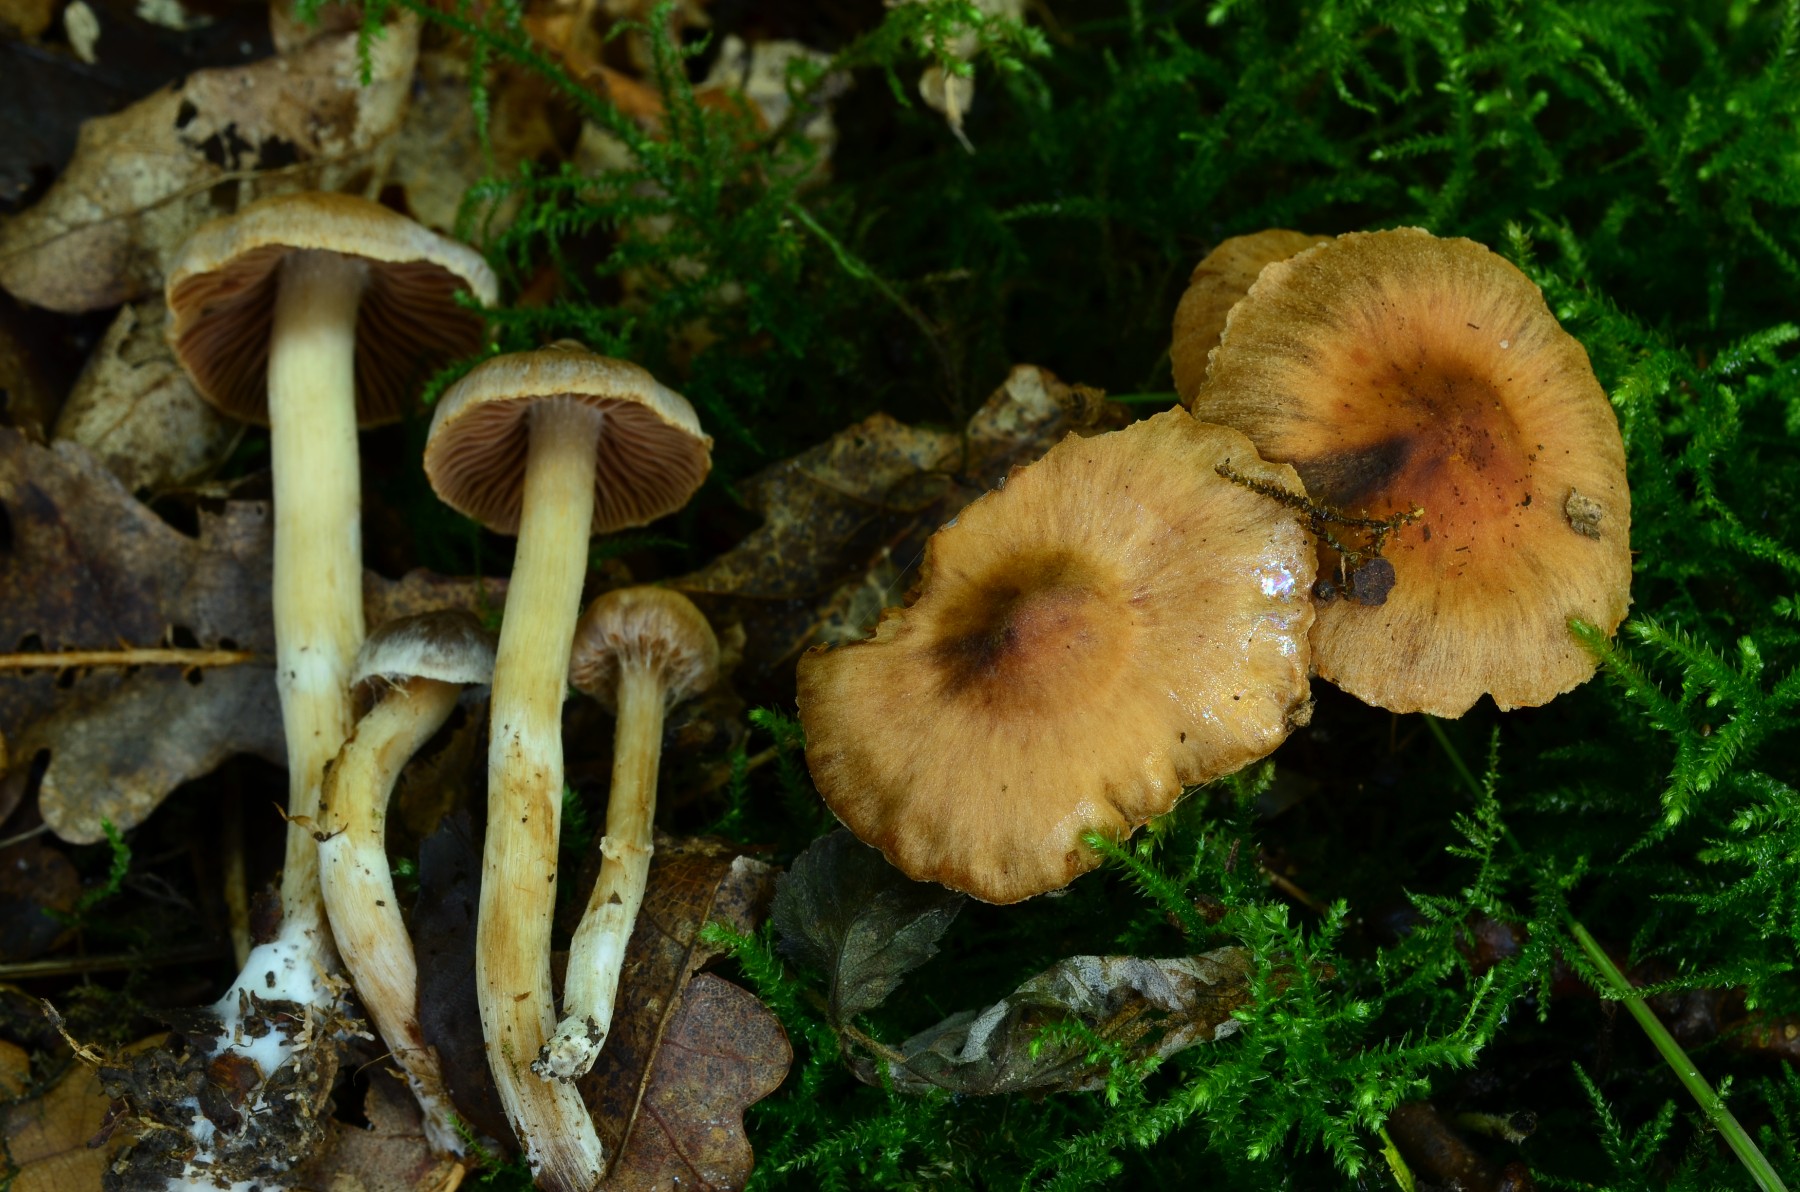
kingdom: Fungi
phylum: Basidiomycota
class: Agaricomycetes
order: Agaricales
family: Cortinariaceae
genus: Cortinarius
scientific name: Cortinarius lucorum
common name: aspe-slørhat
